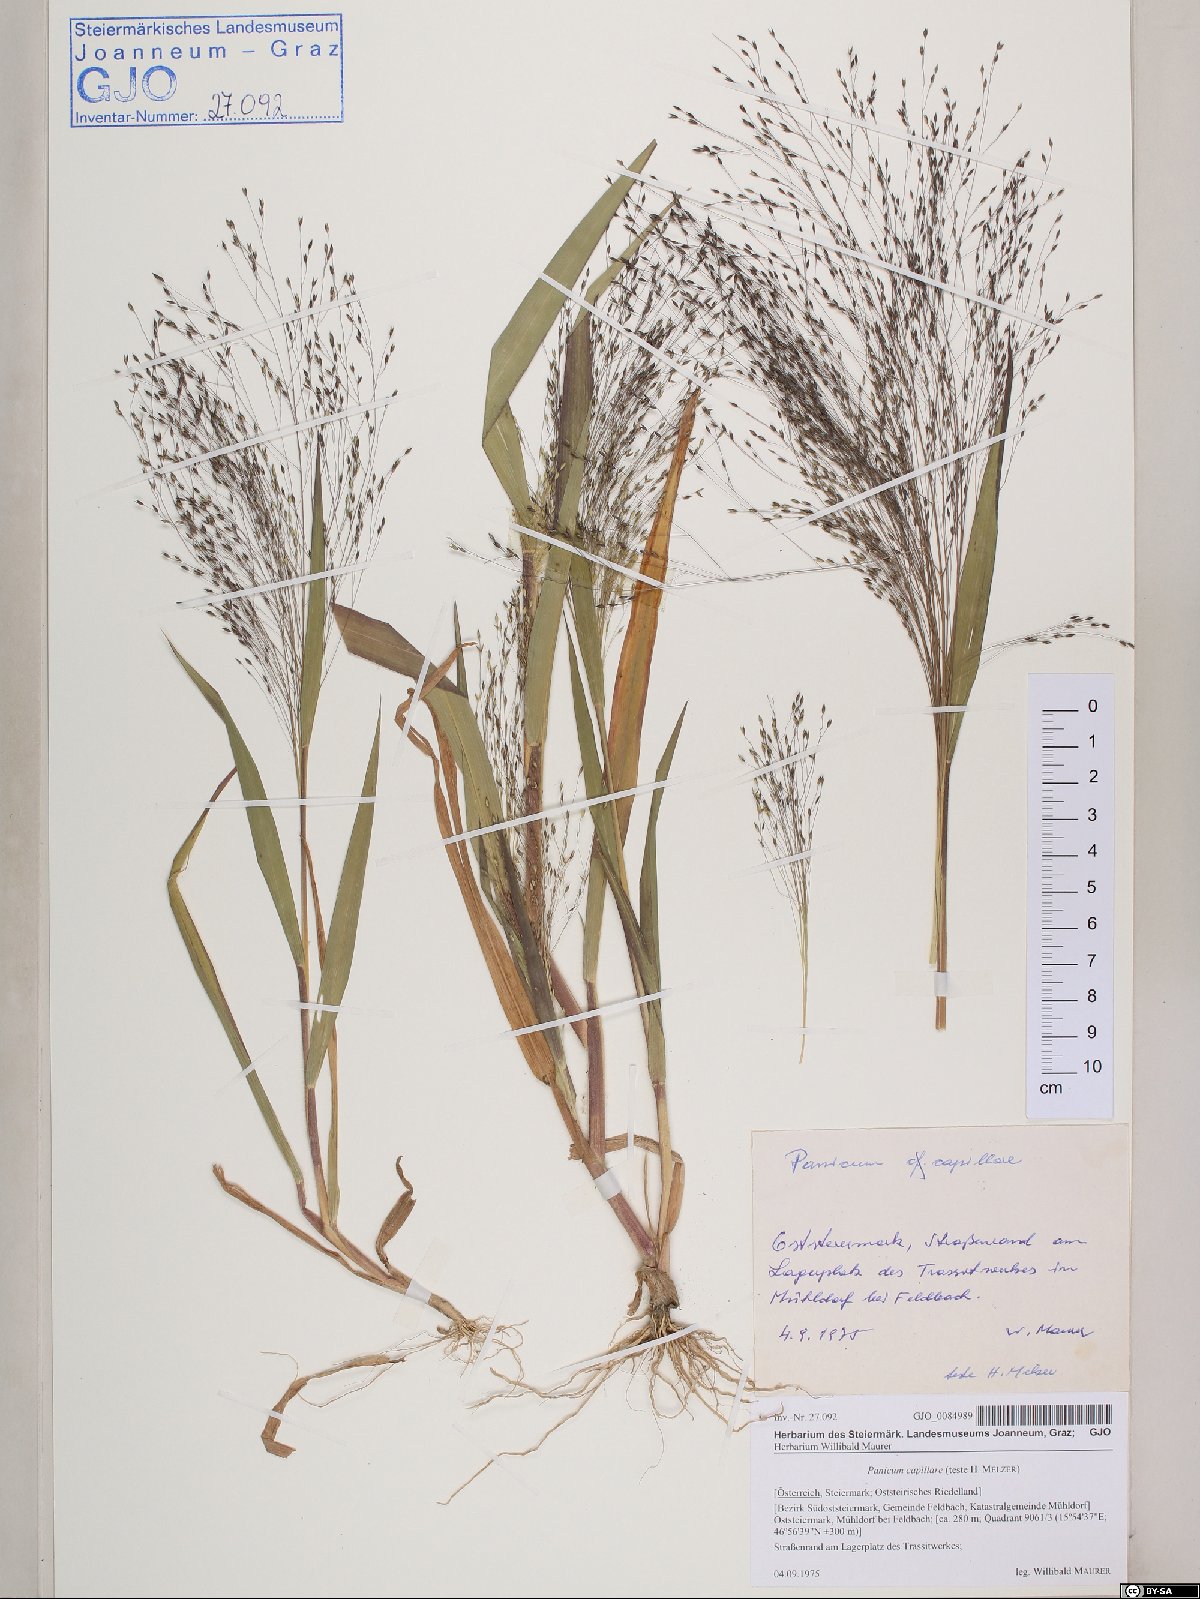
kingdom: Plantae
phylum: Tracheophyta
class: Liliopsida
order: Poales
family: Poaceae
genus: Panicum
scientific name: Panicum capillare
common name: Witch-grass
